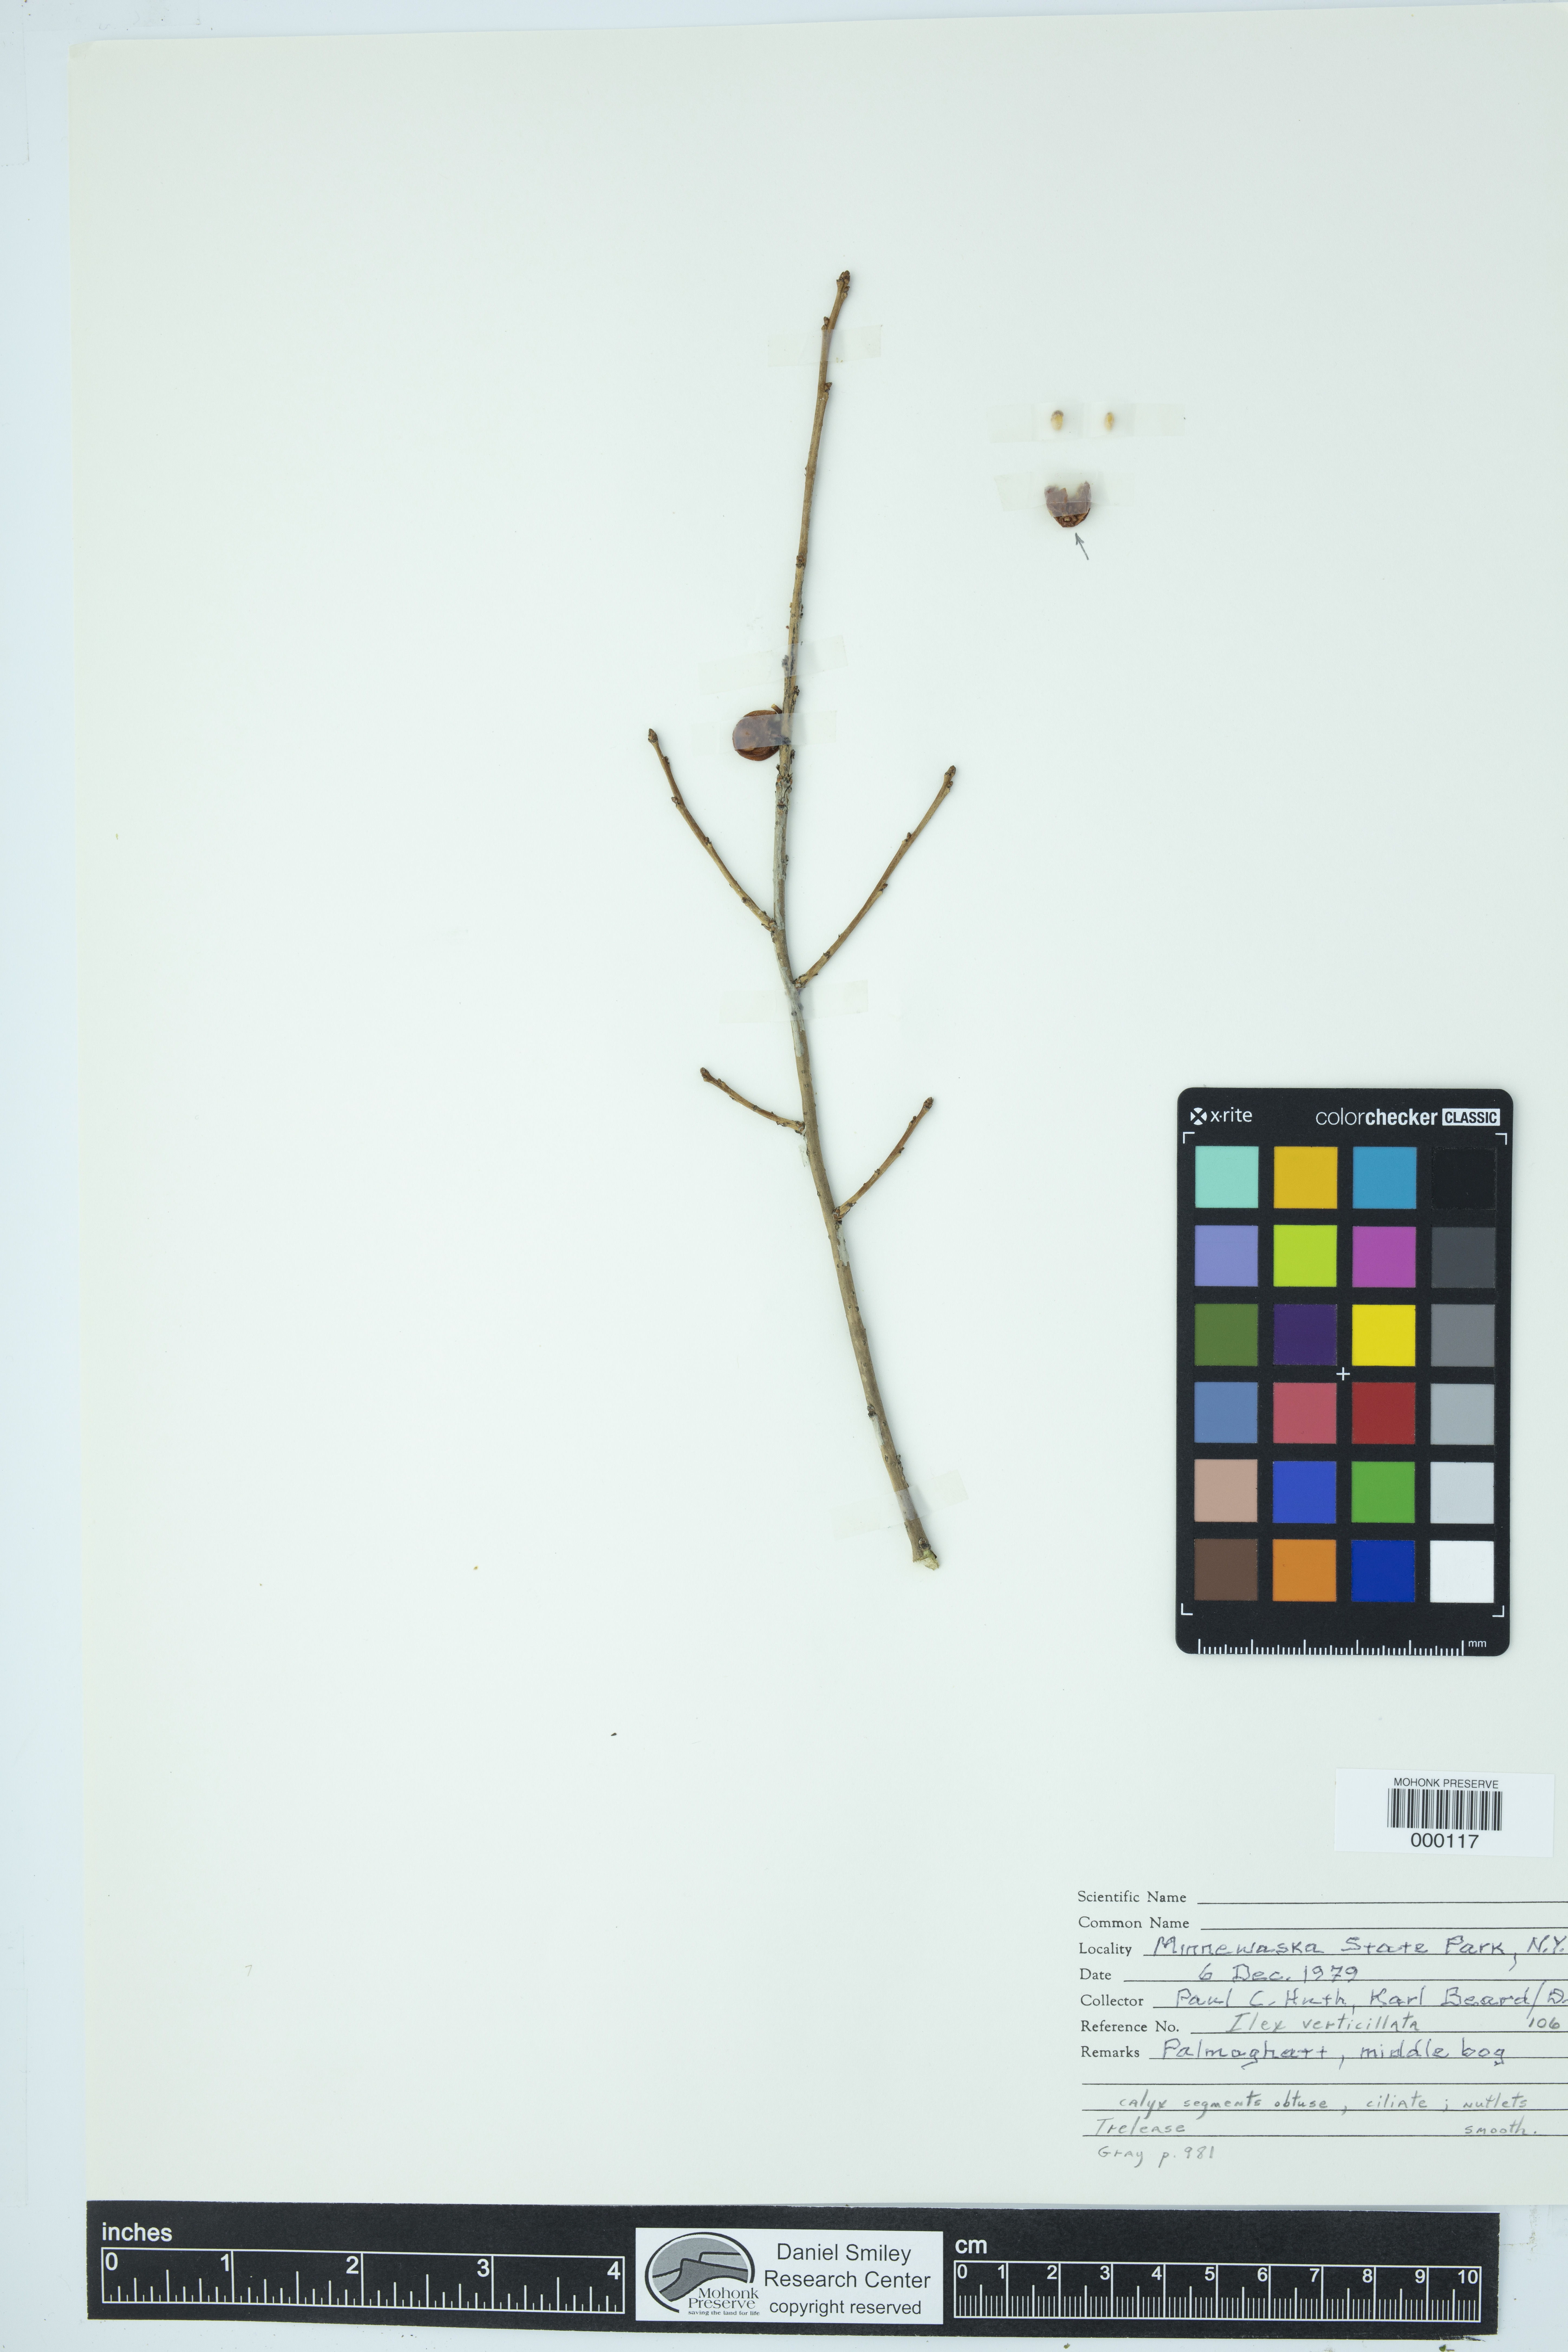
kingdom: Plantae
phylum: Tracheophyta
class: Magnoliopsida
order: Aquifoliales
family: Aquifoliaceae
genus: Ilex
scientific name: Ilex verticillata
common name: Virginia winterberry
